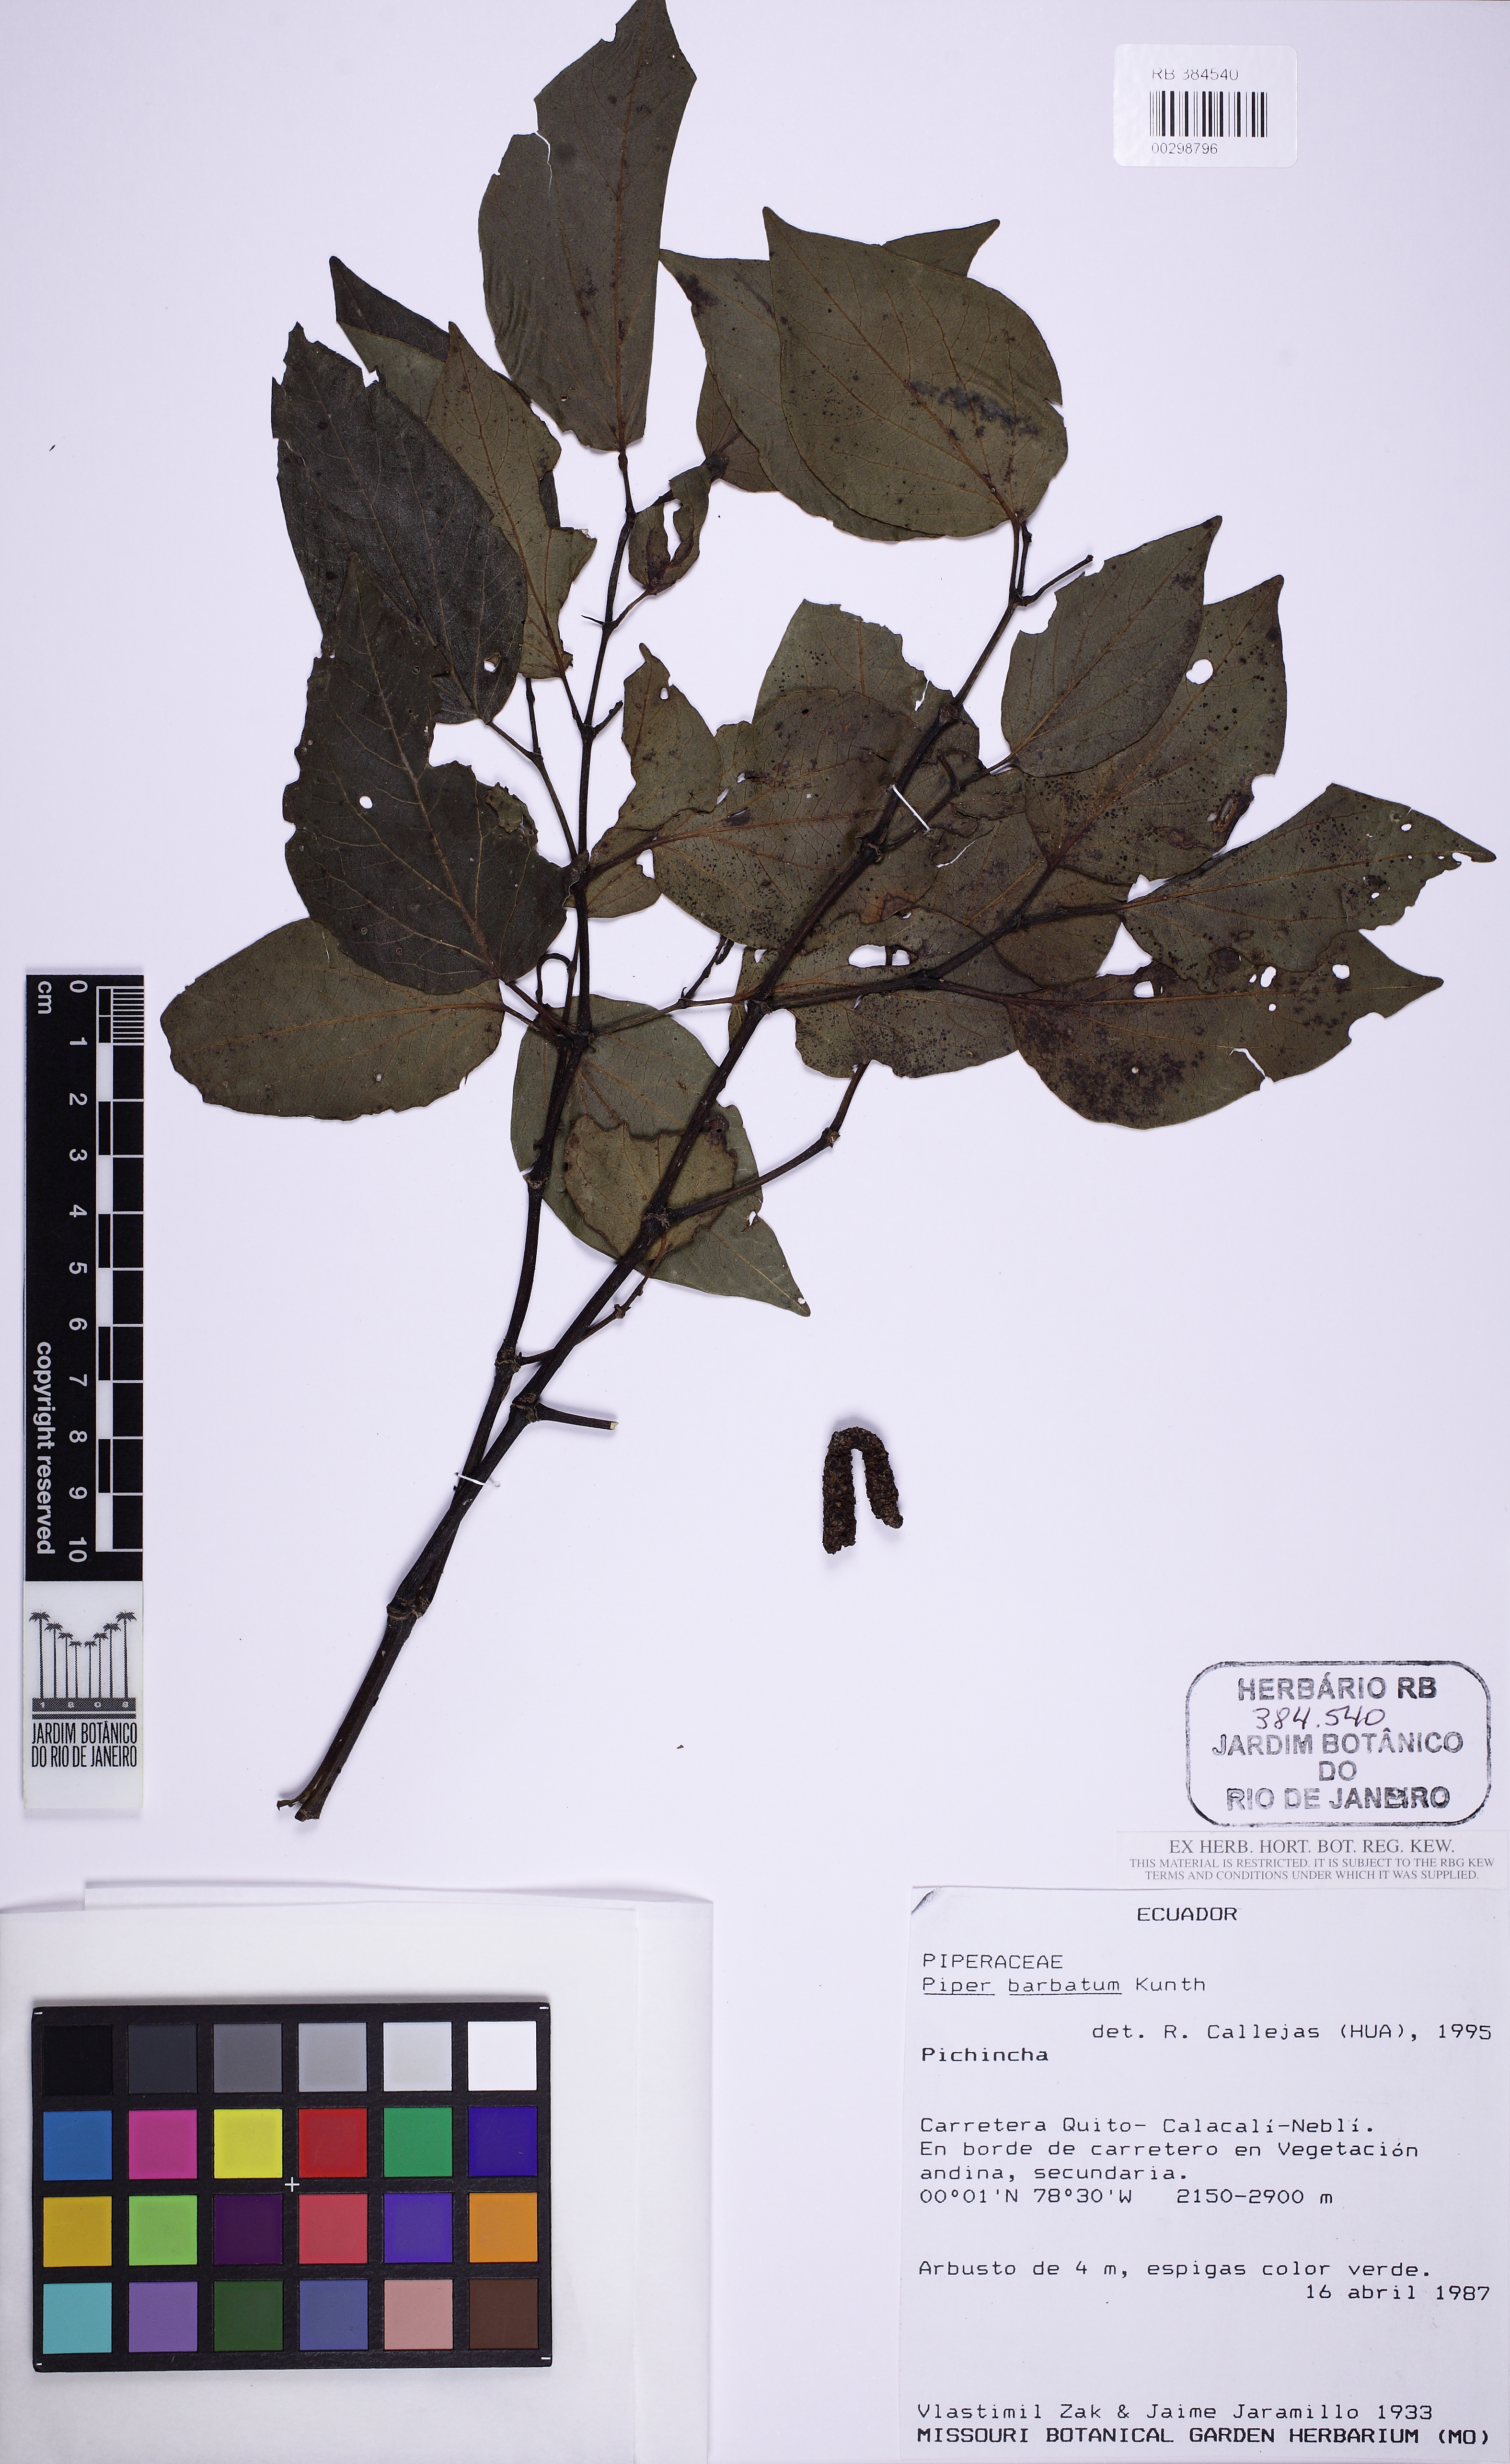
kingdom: Plantae
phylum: Tracheophyta
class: Magnoliopsida
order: Piperales
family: Piperaceae
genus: Piper
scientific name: Piper barbatum
